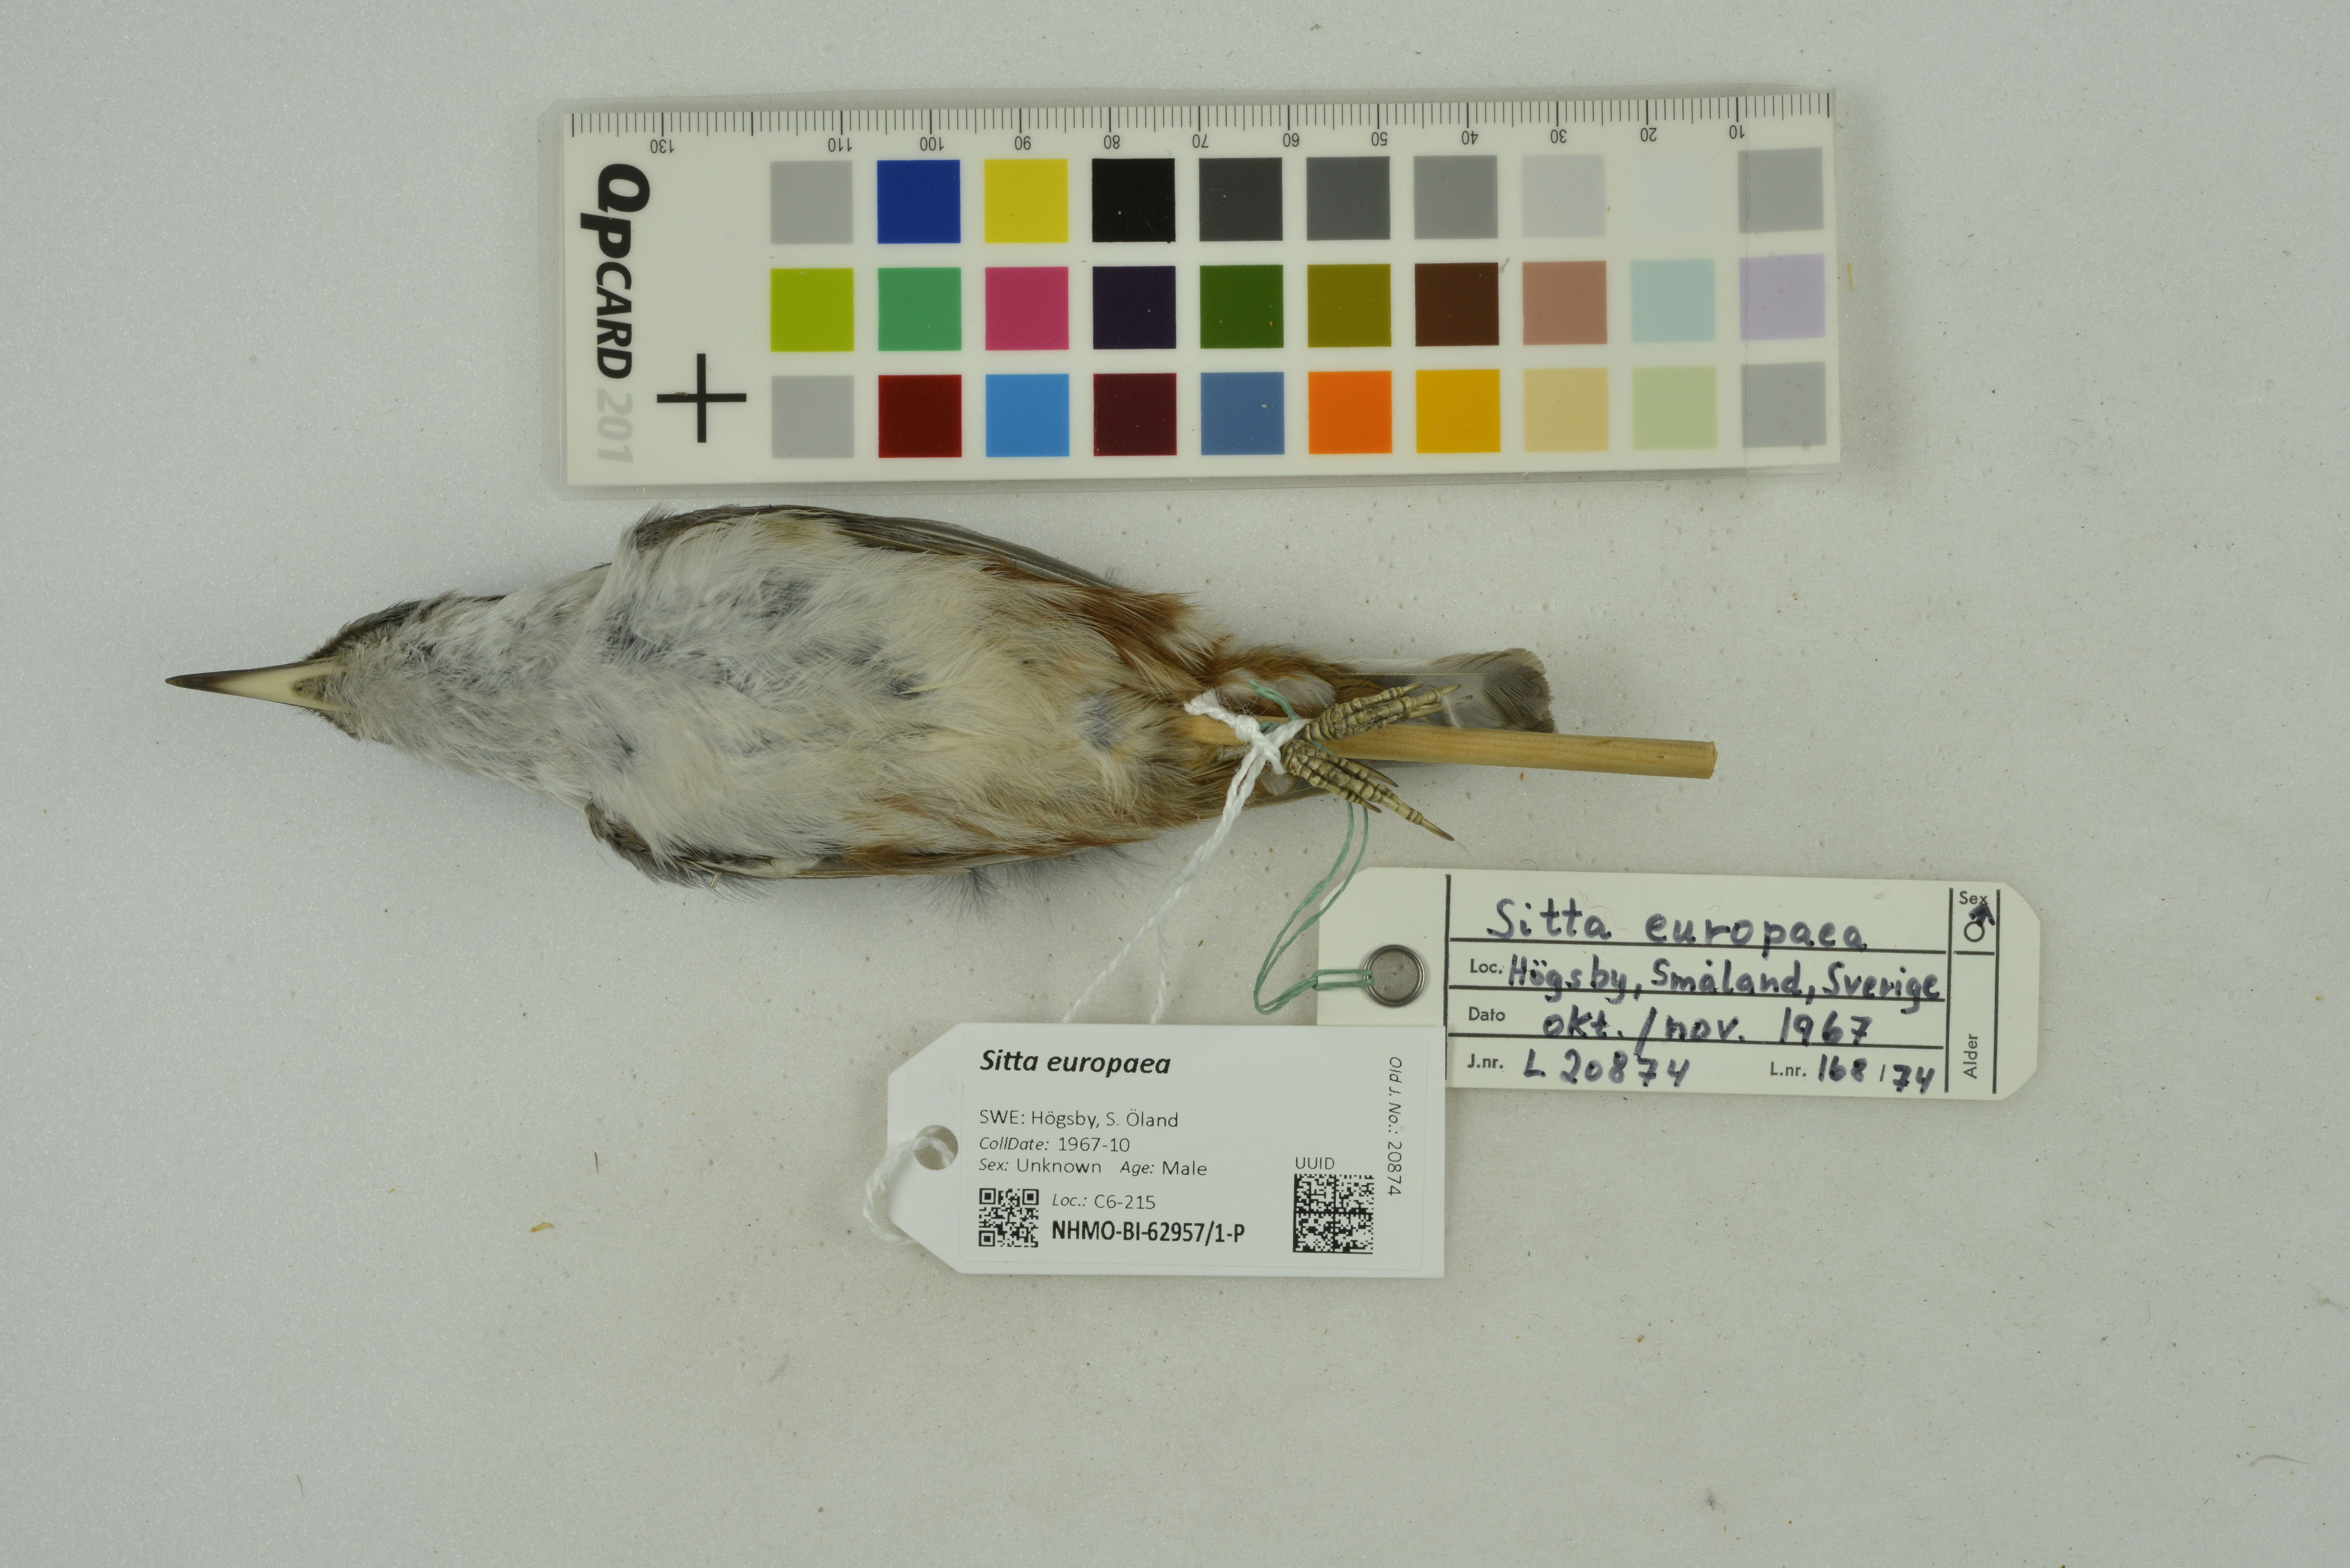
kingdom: Animalia
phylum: Chordata
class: Aves
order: Passeriformes
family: Sittidae
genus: Sitta
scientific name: Sitta europaea
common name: Eurasian nuthatch
